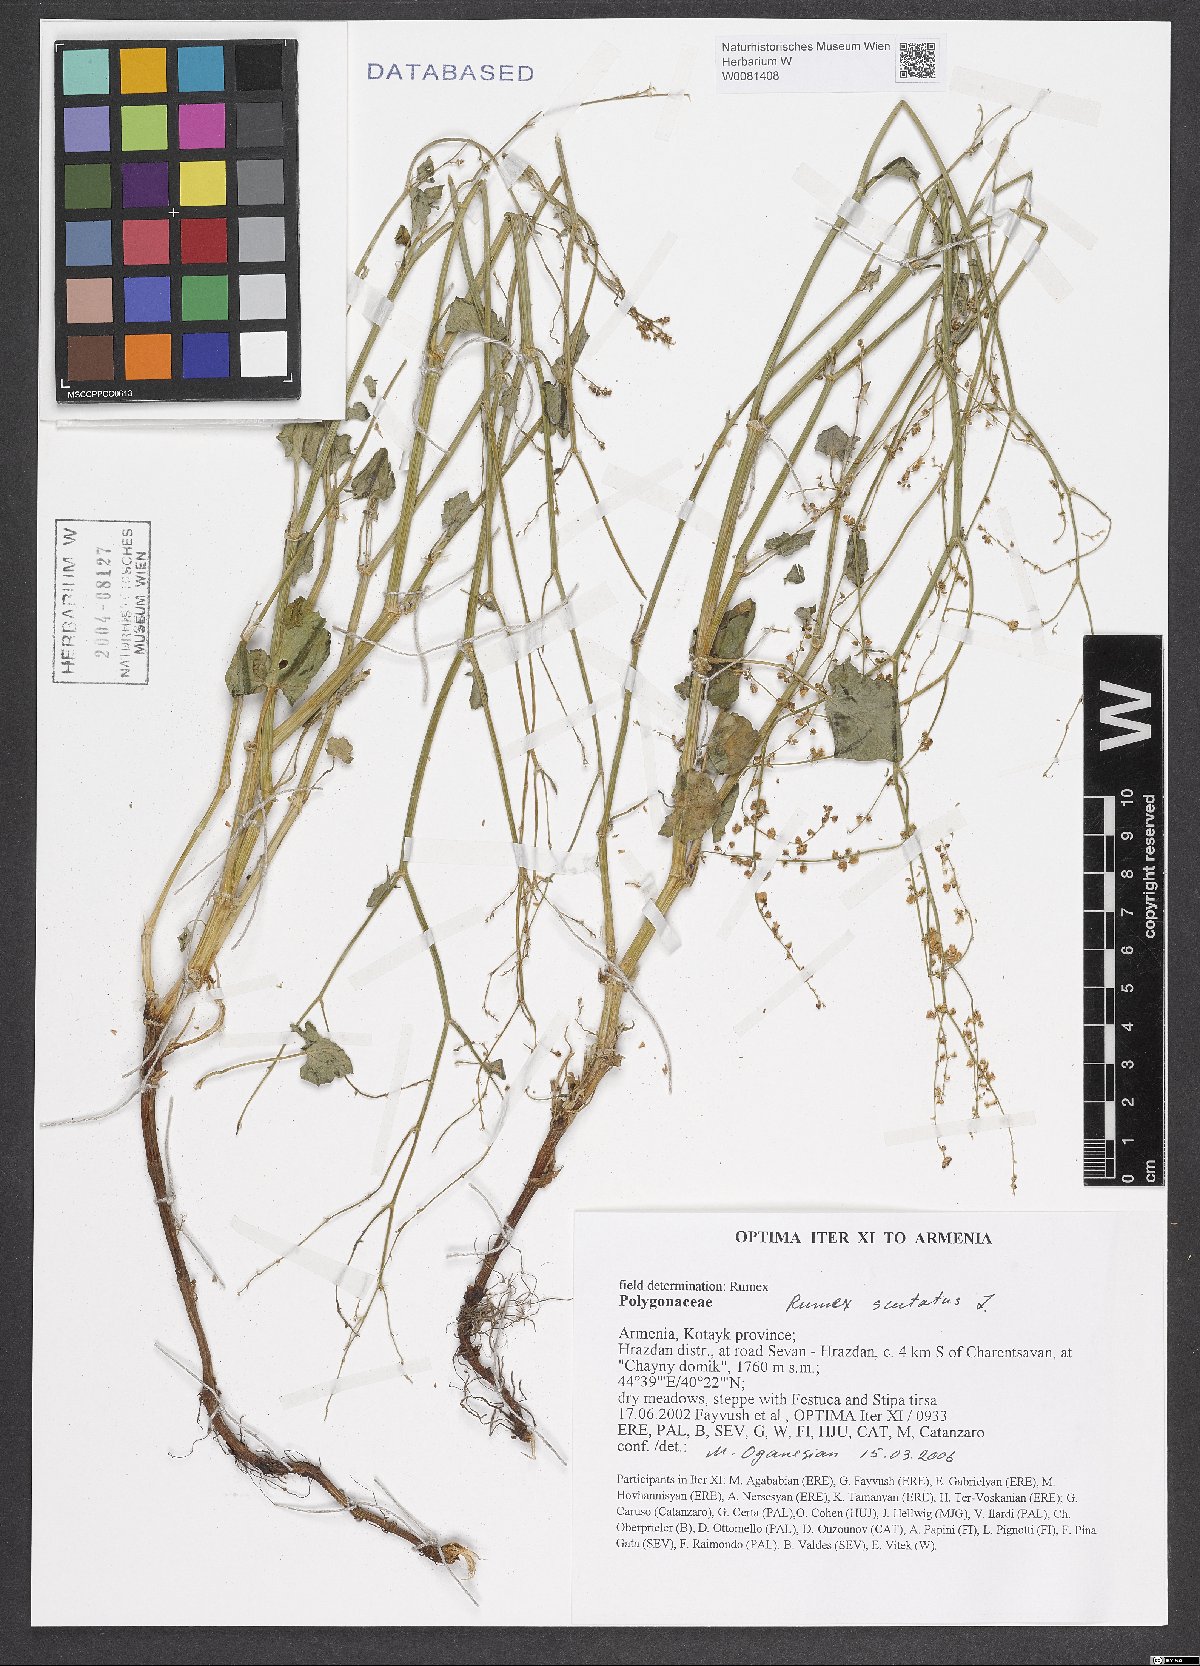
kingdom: Plantae
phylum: Tracheophyta
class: Magnoliopsida
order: Caryophyllales
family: Polygonaceae
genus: Rumex
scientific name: Rumex scutatus
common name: French sorrel
